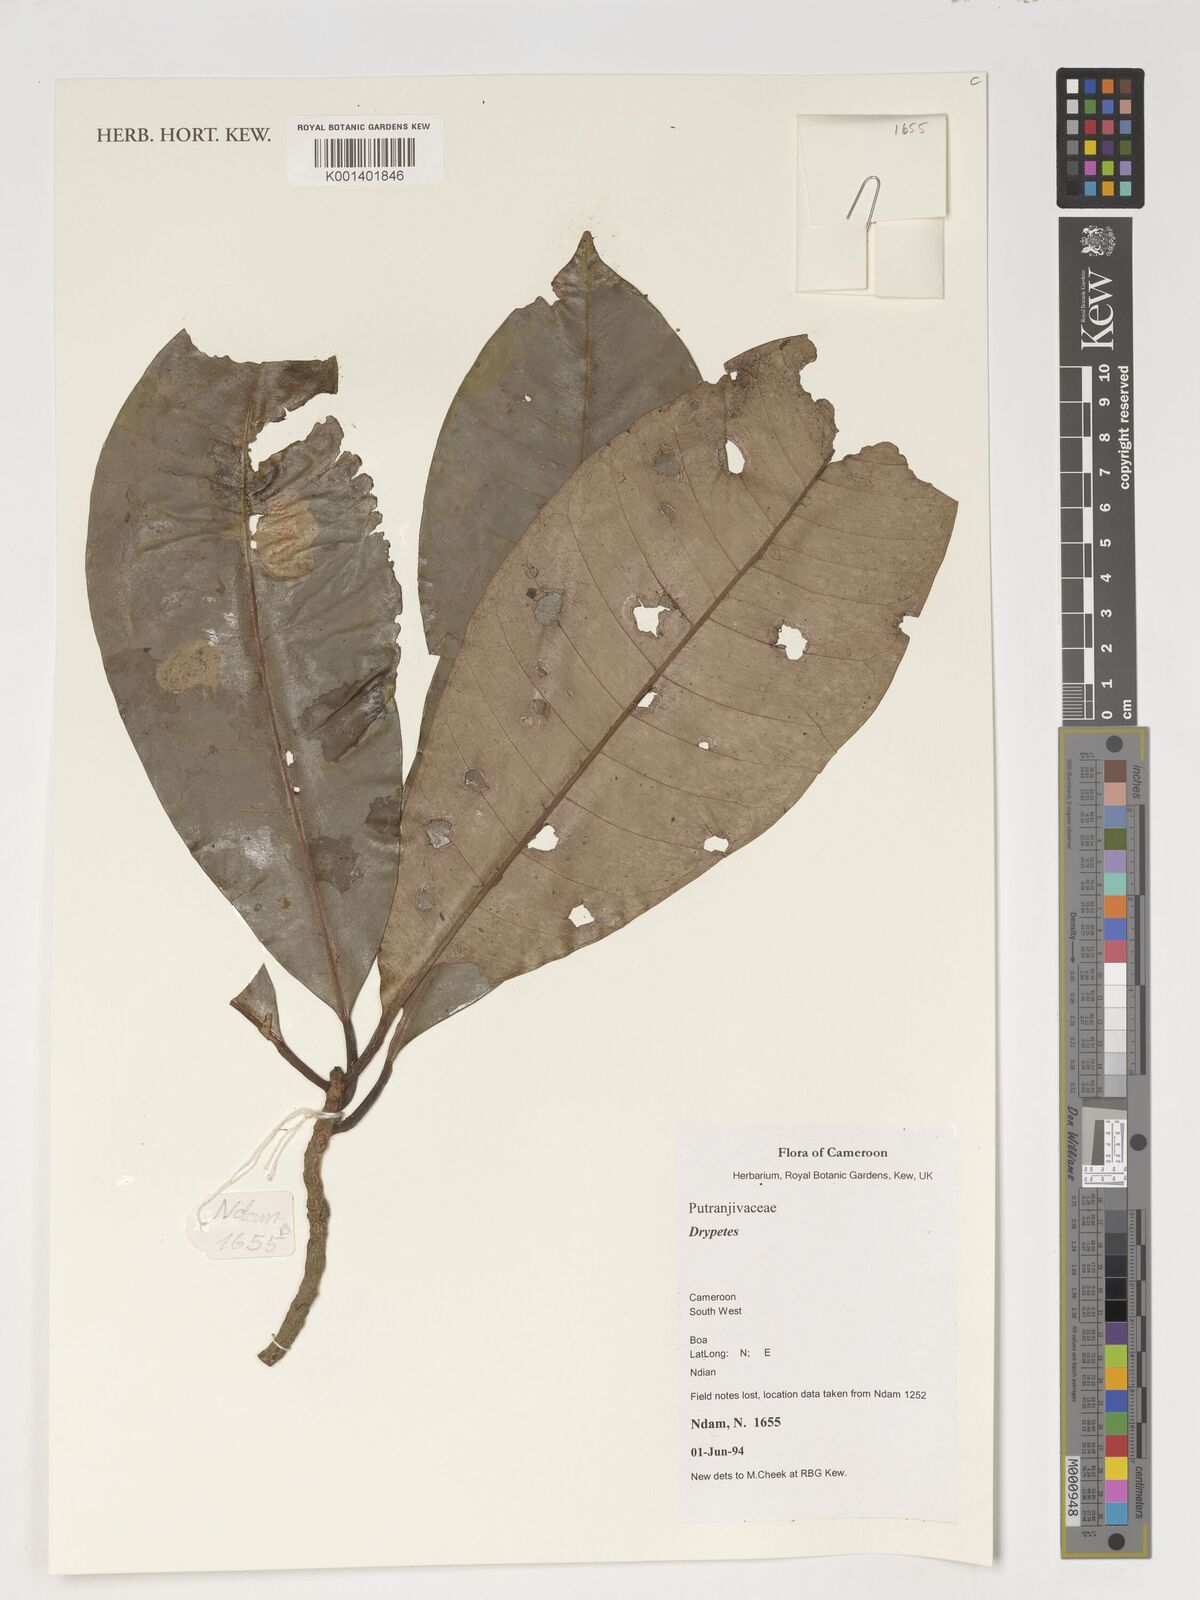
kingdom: Plantae
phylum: Tracheophyta
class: Magnoliopsida
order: Malpighiales
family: Putranjivaceae
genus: Drypetes
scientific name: Drypetes
